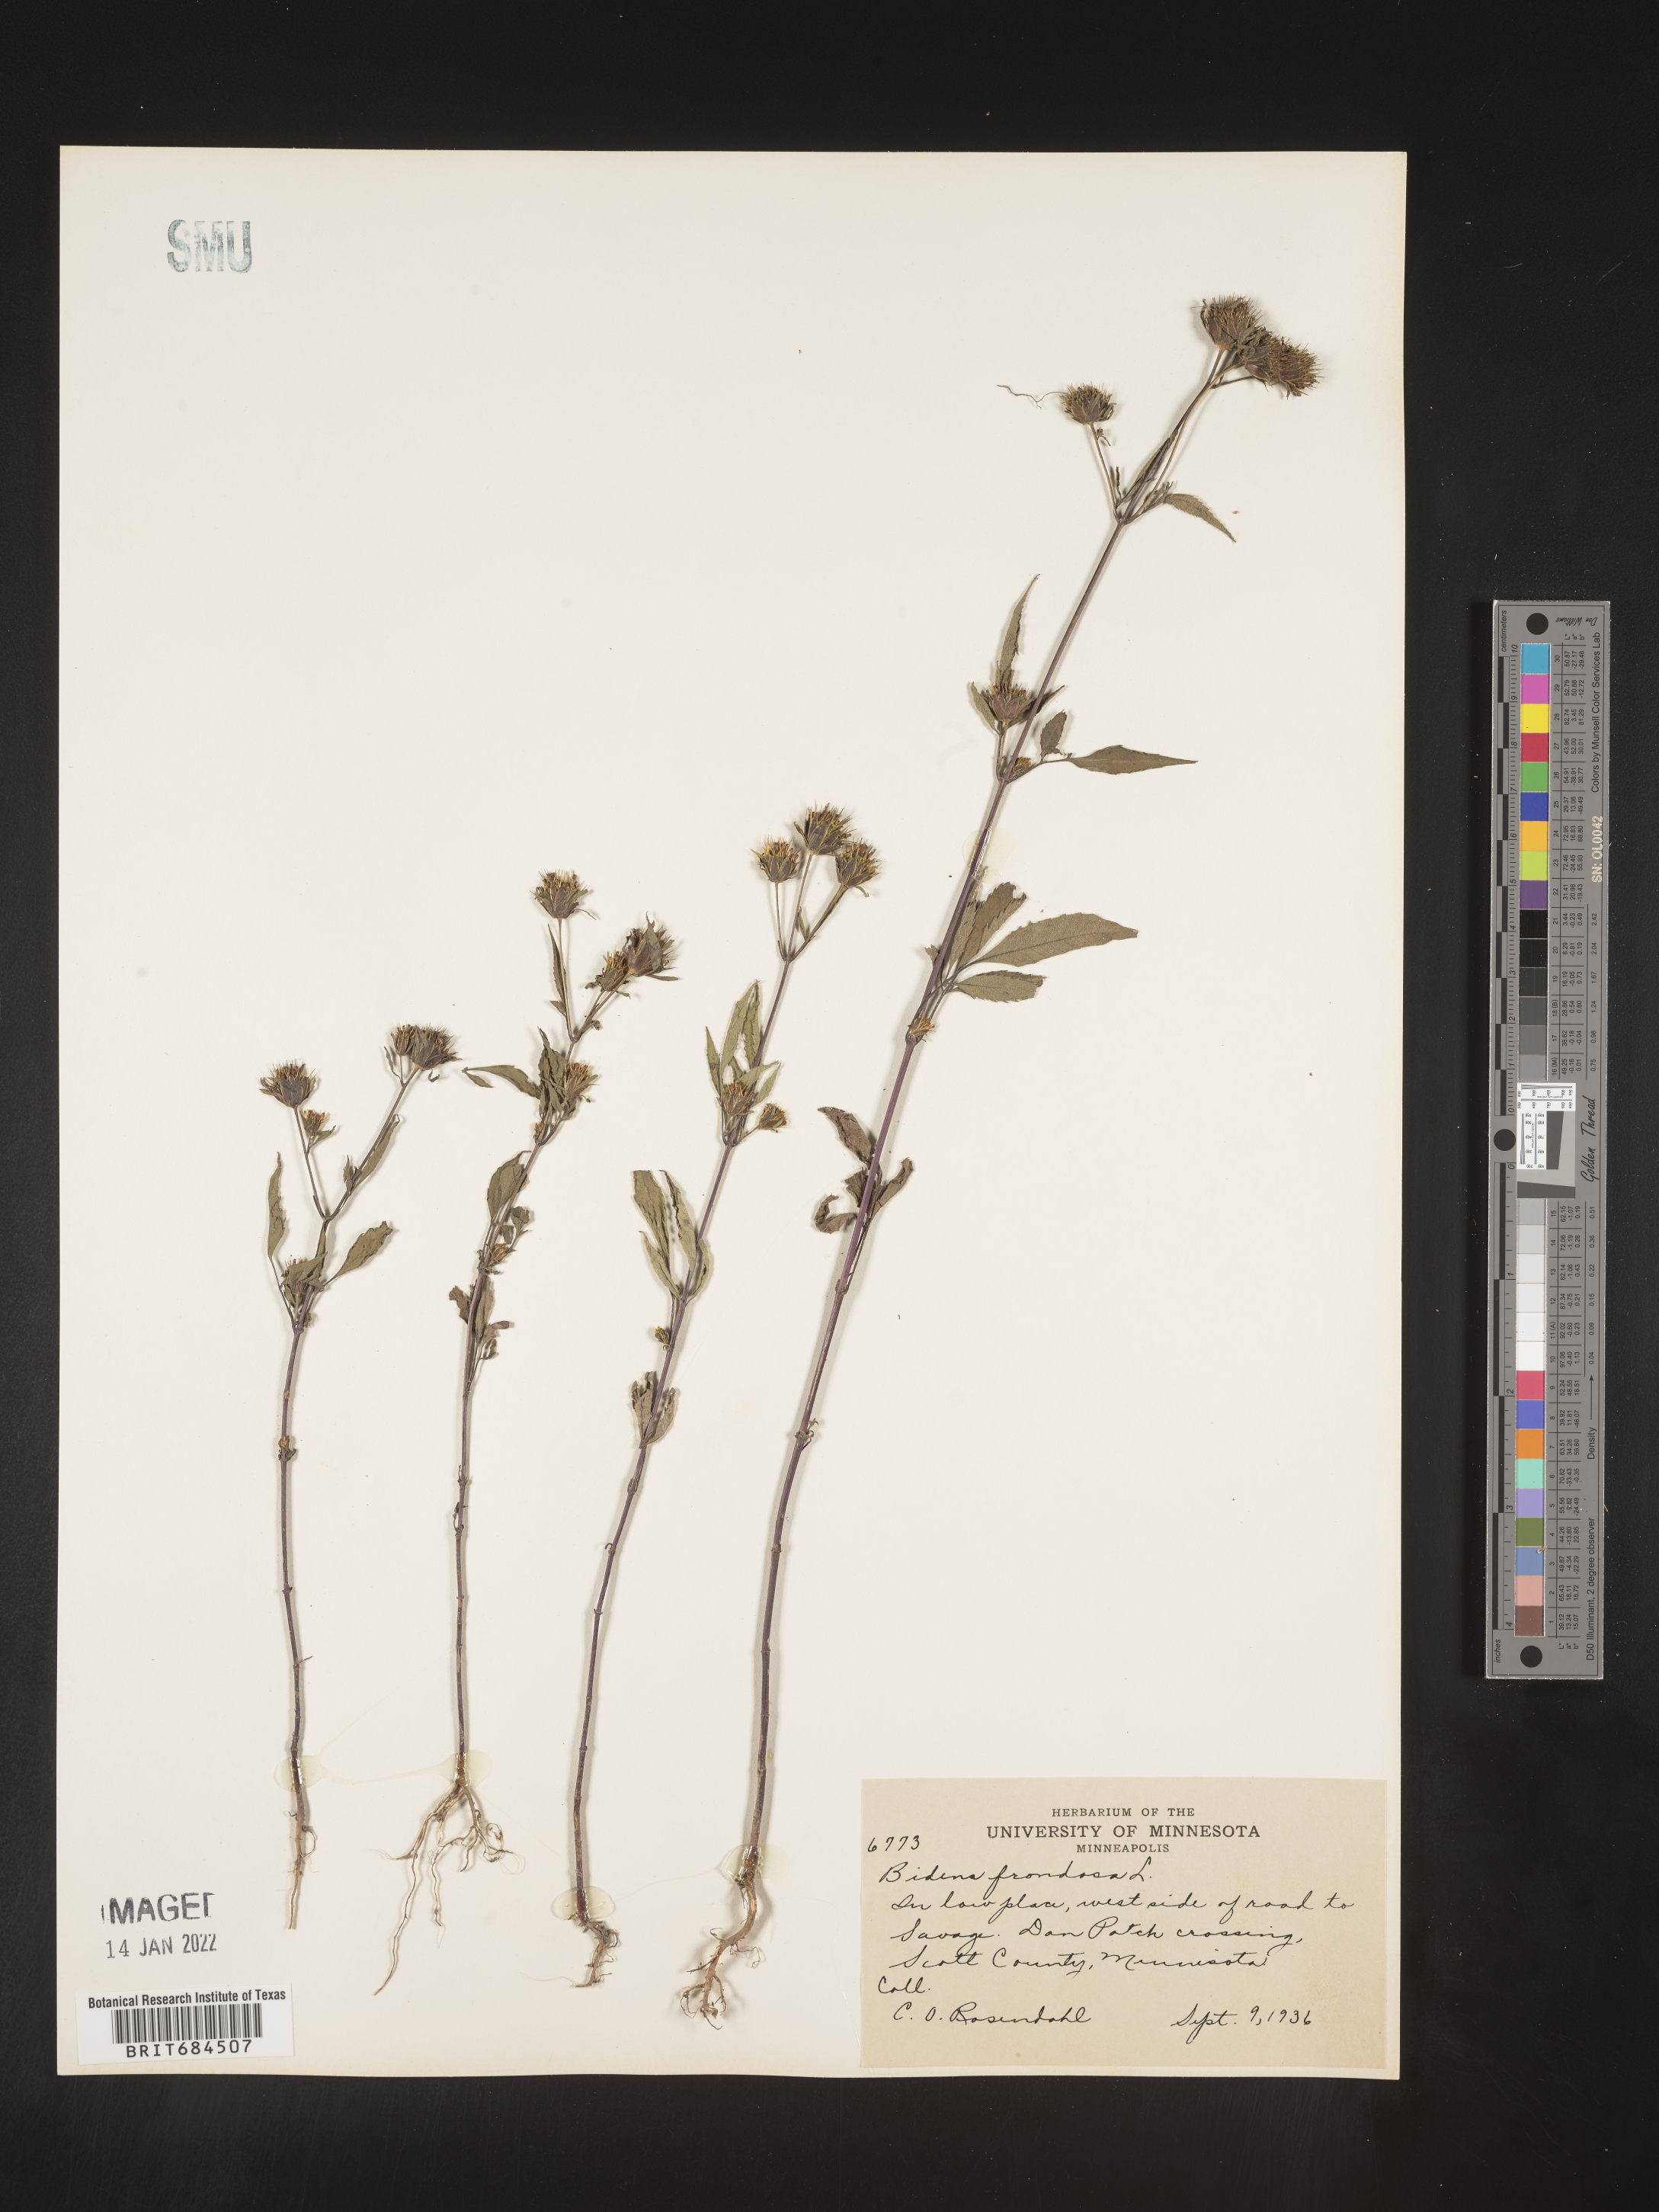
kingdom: Plantae
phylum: Tracheophyta
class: Magnoliopsida
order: Asterales
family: Asteraceae
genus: Bidens
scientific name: Bidens frondosa
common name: Beggarticks
